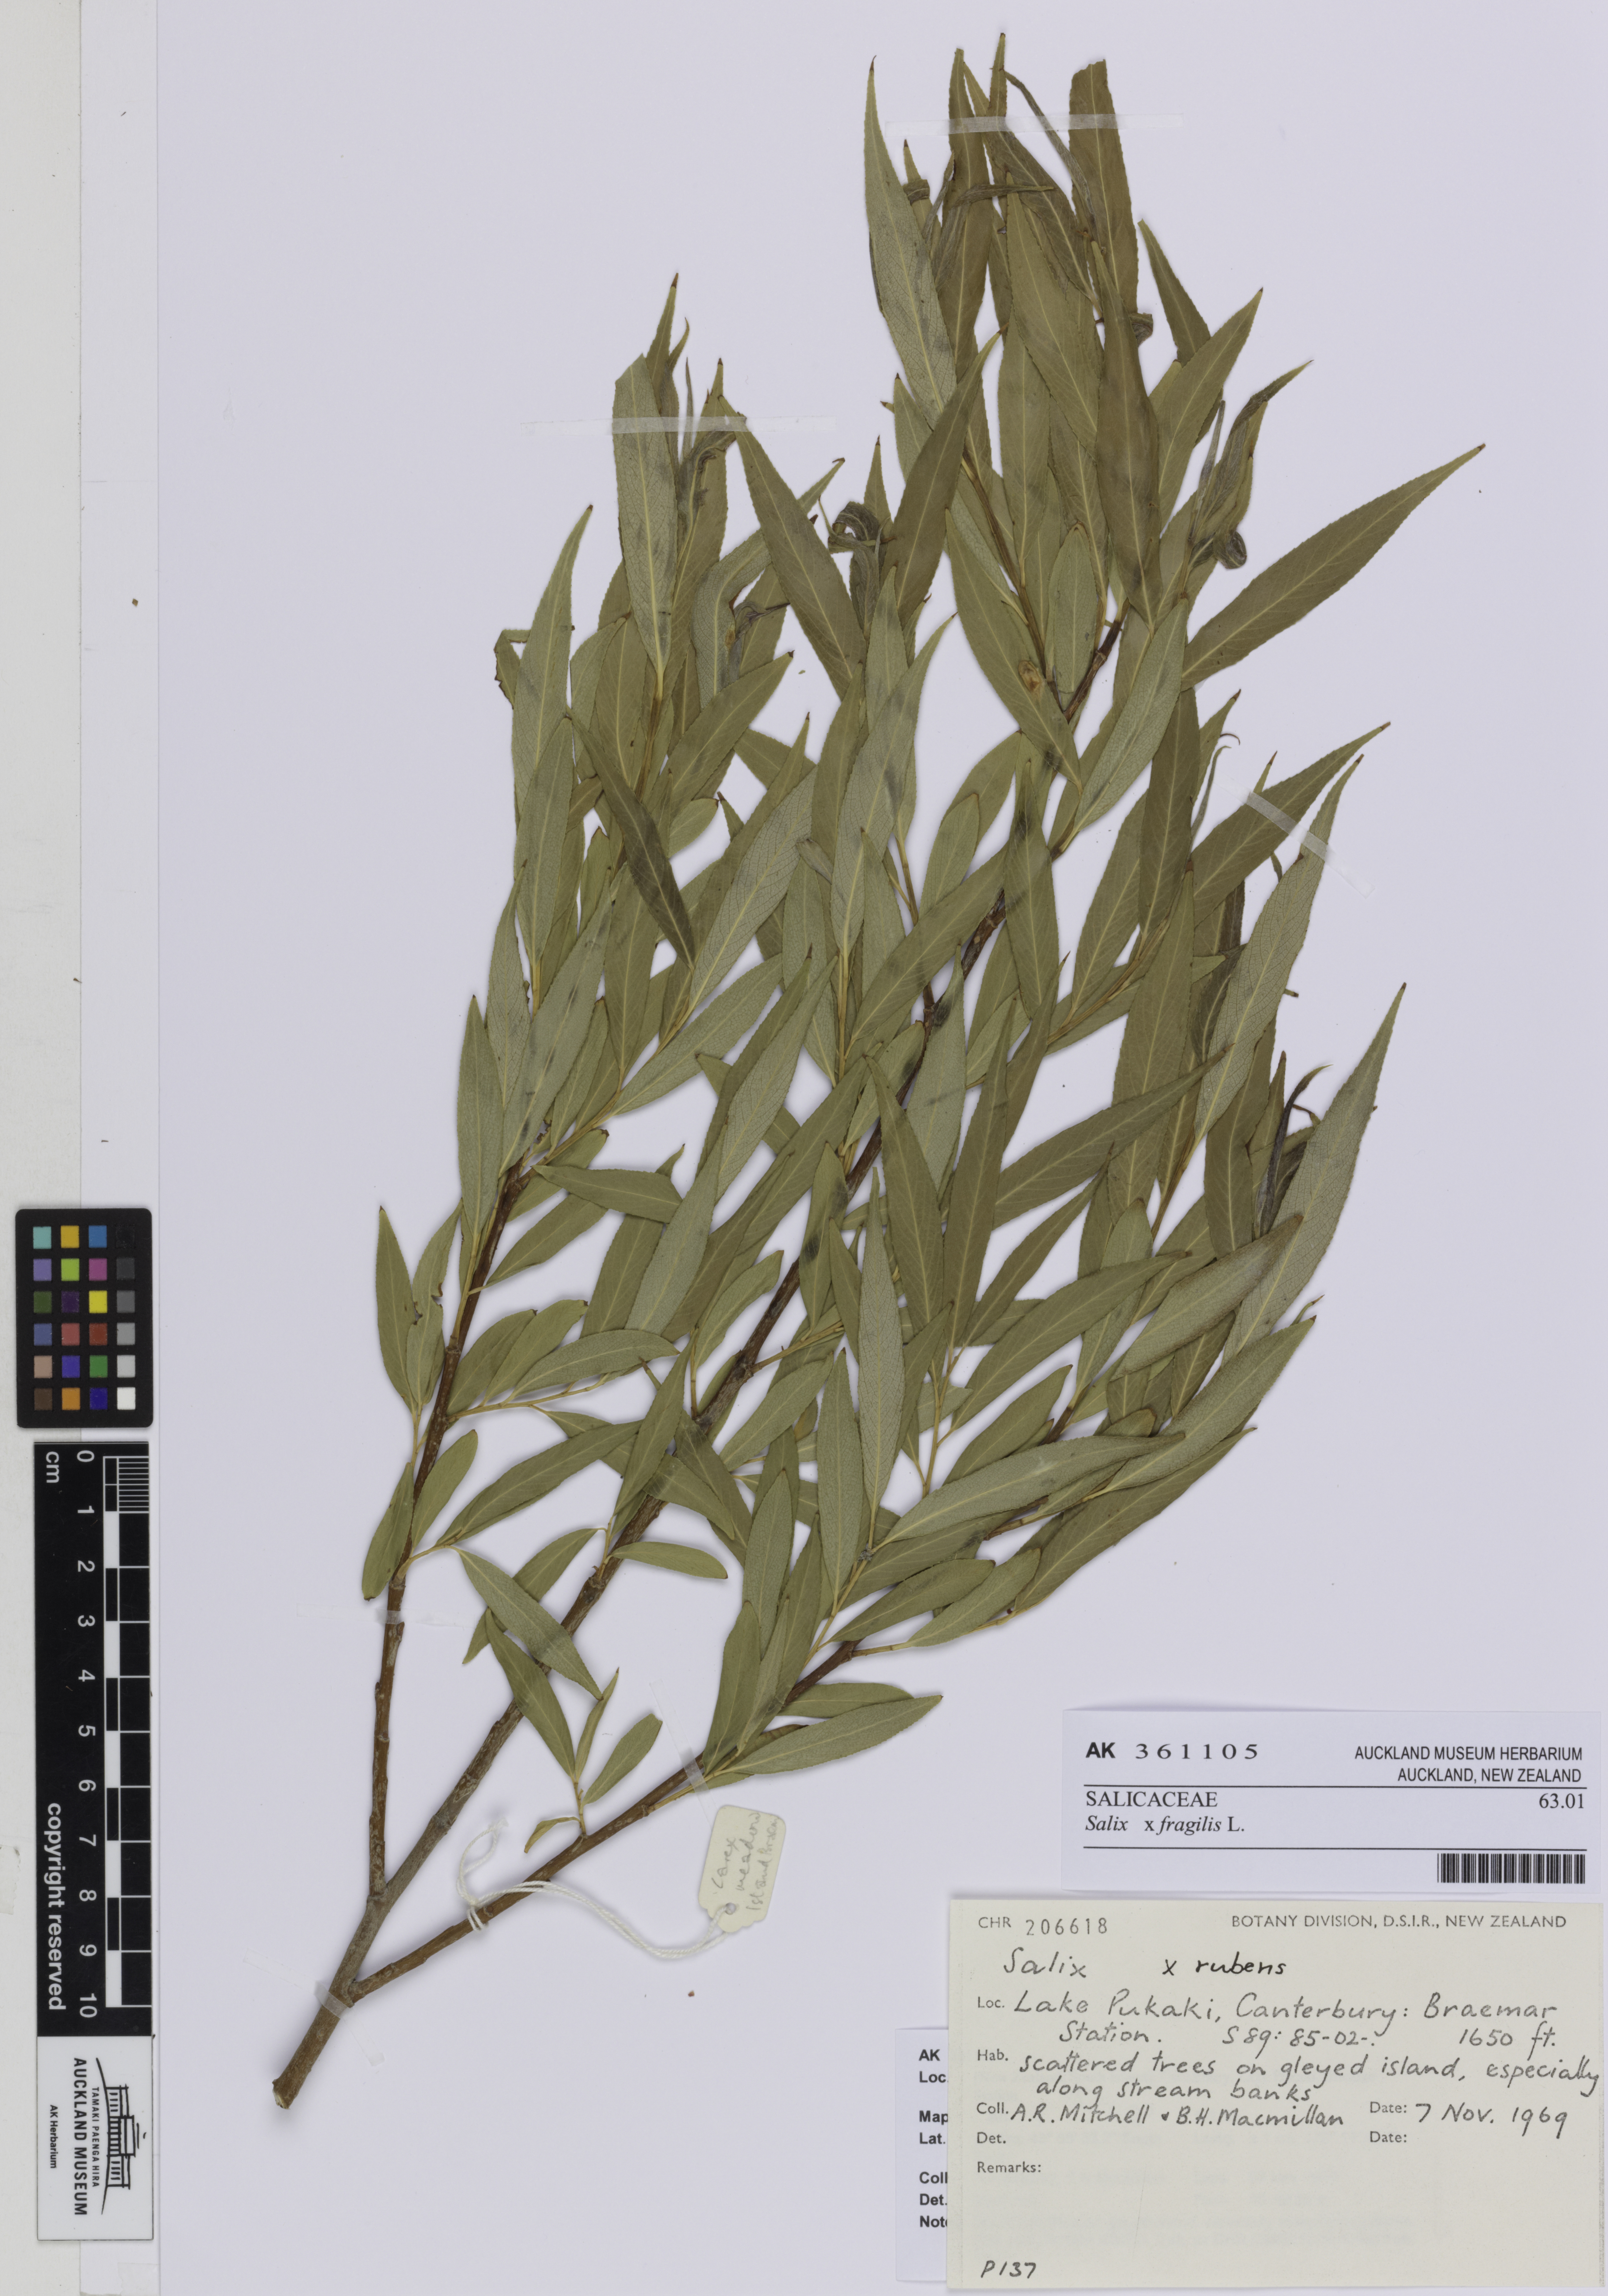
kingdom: Plantae
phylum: Tracheophyta
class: Magnoliopsida
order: Malpighiales
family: Salicaceae
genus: Salix
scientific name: Salix fragilis
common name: Crack willow
